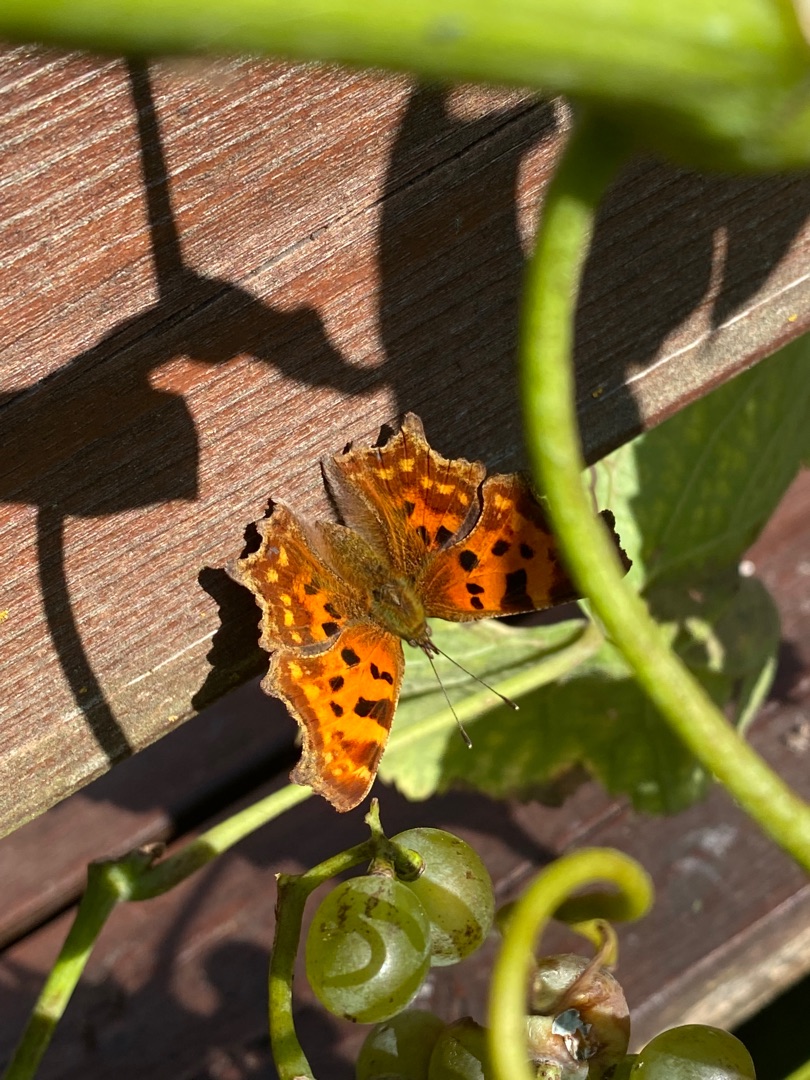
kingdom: Animalia
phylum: Arthropoda
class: Insecta
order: Lepidoptera
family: Nymphalidae
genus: Polygonia
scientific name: Polygonia c-album
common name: Det hvide C
